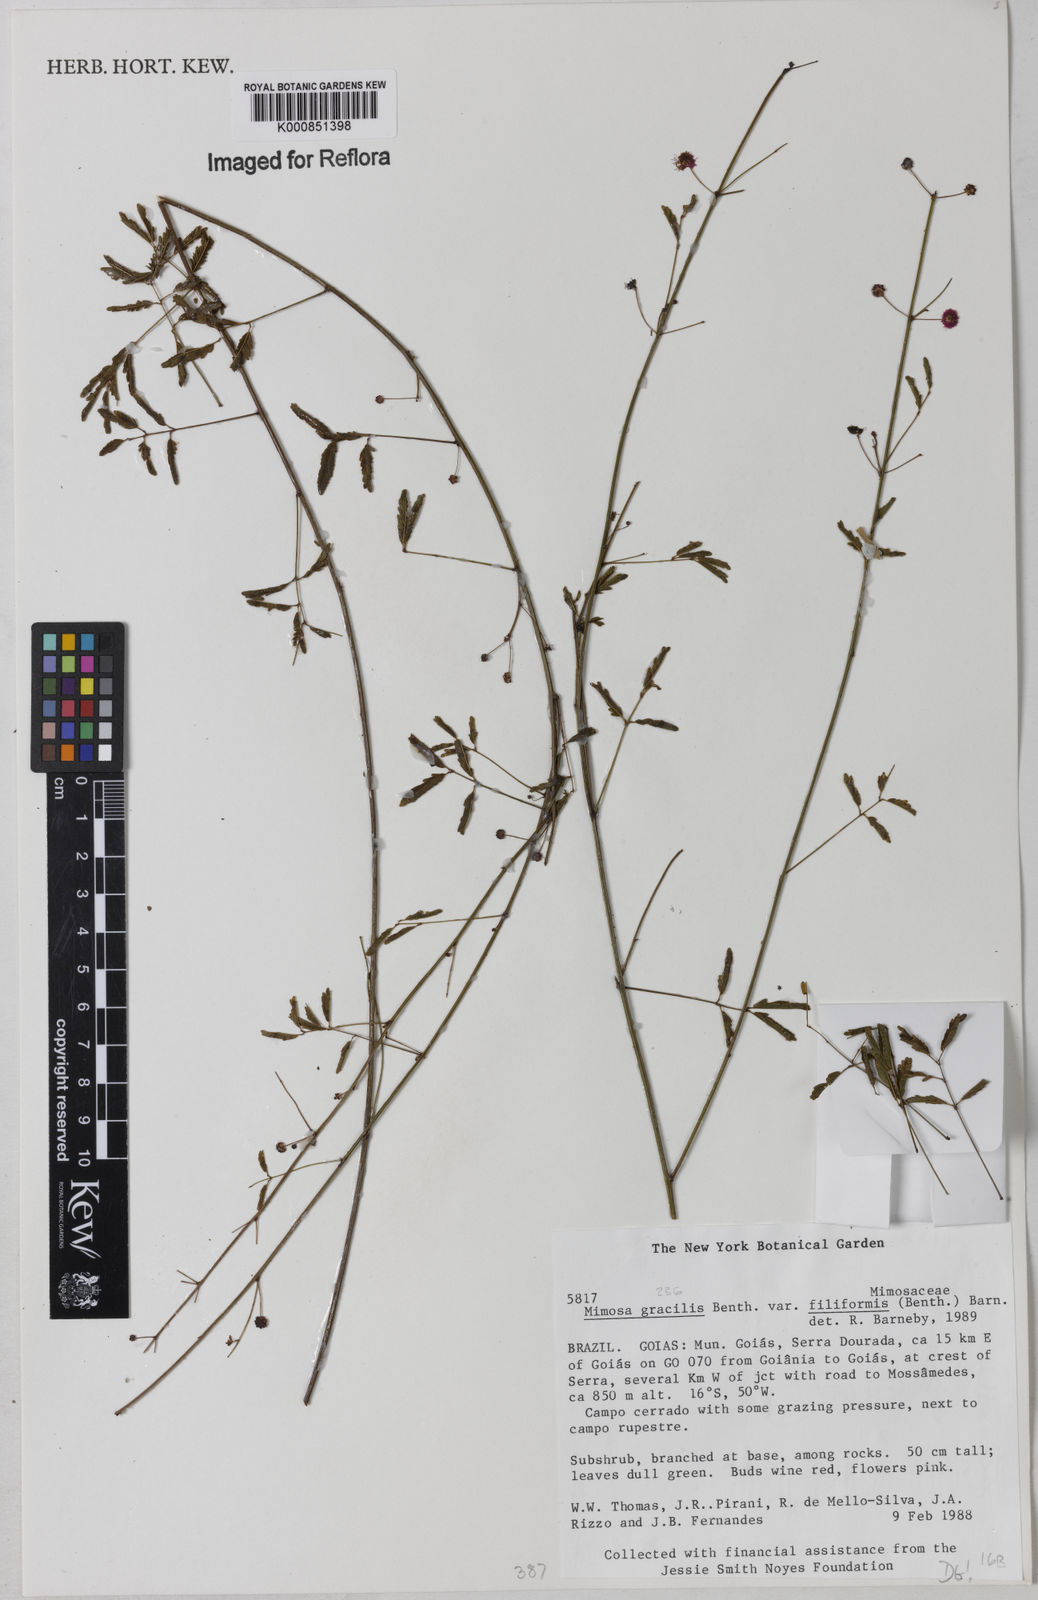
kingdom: Plantae
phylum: Tracheophyta
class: Magnoliopsida
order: Fabales
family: Fabaceae
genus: Mimosa
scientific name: Mimosa gracilis
